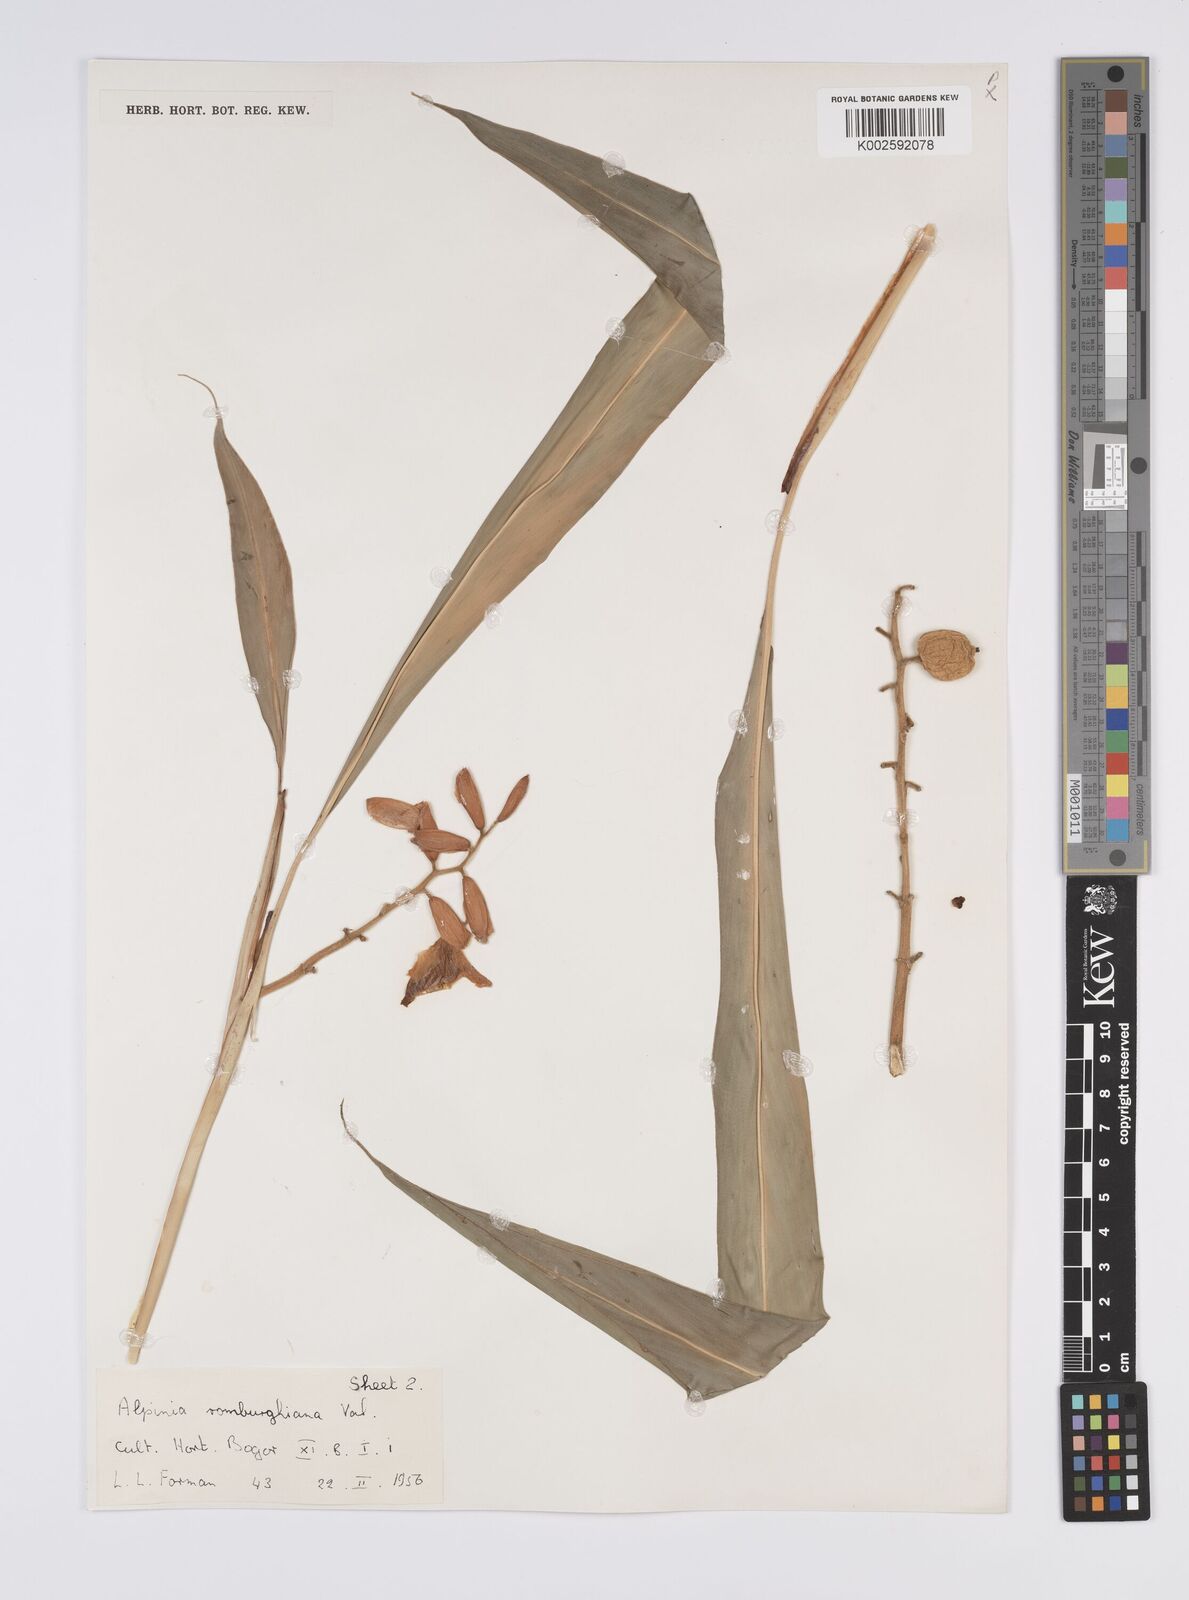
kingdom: Plantae
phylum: Tracheophyta
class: Liliopsida
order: Zingiberales
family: Zingiberaceae
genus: Alpinia
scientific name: Alpinia romburghiana
